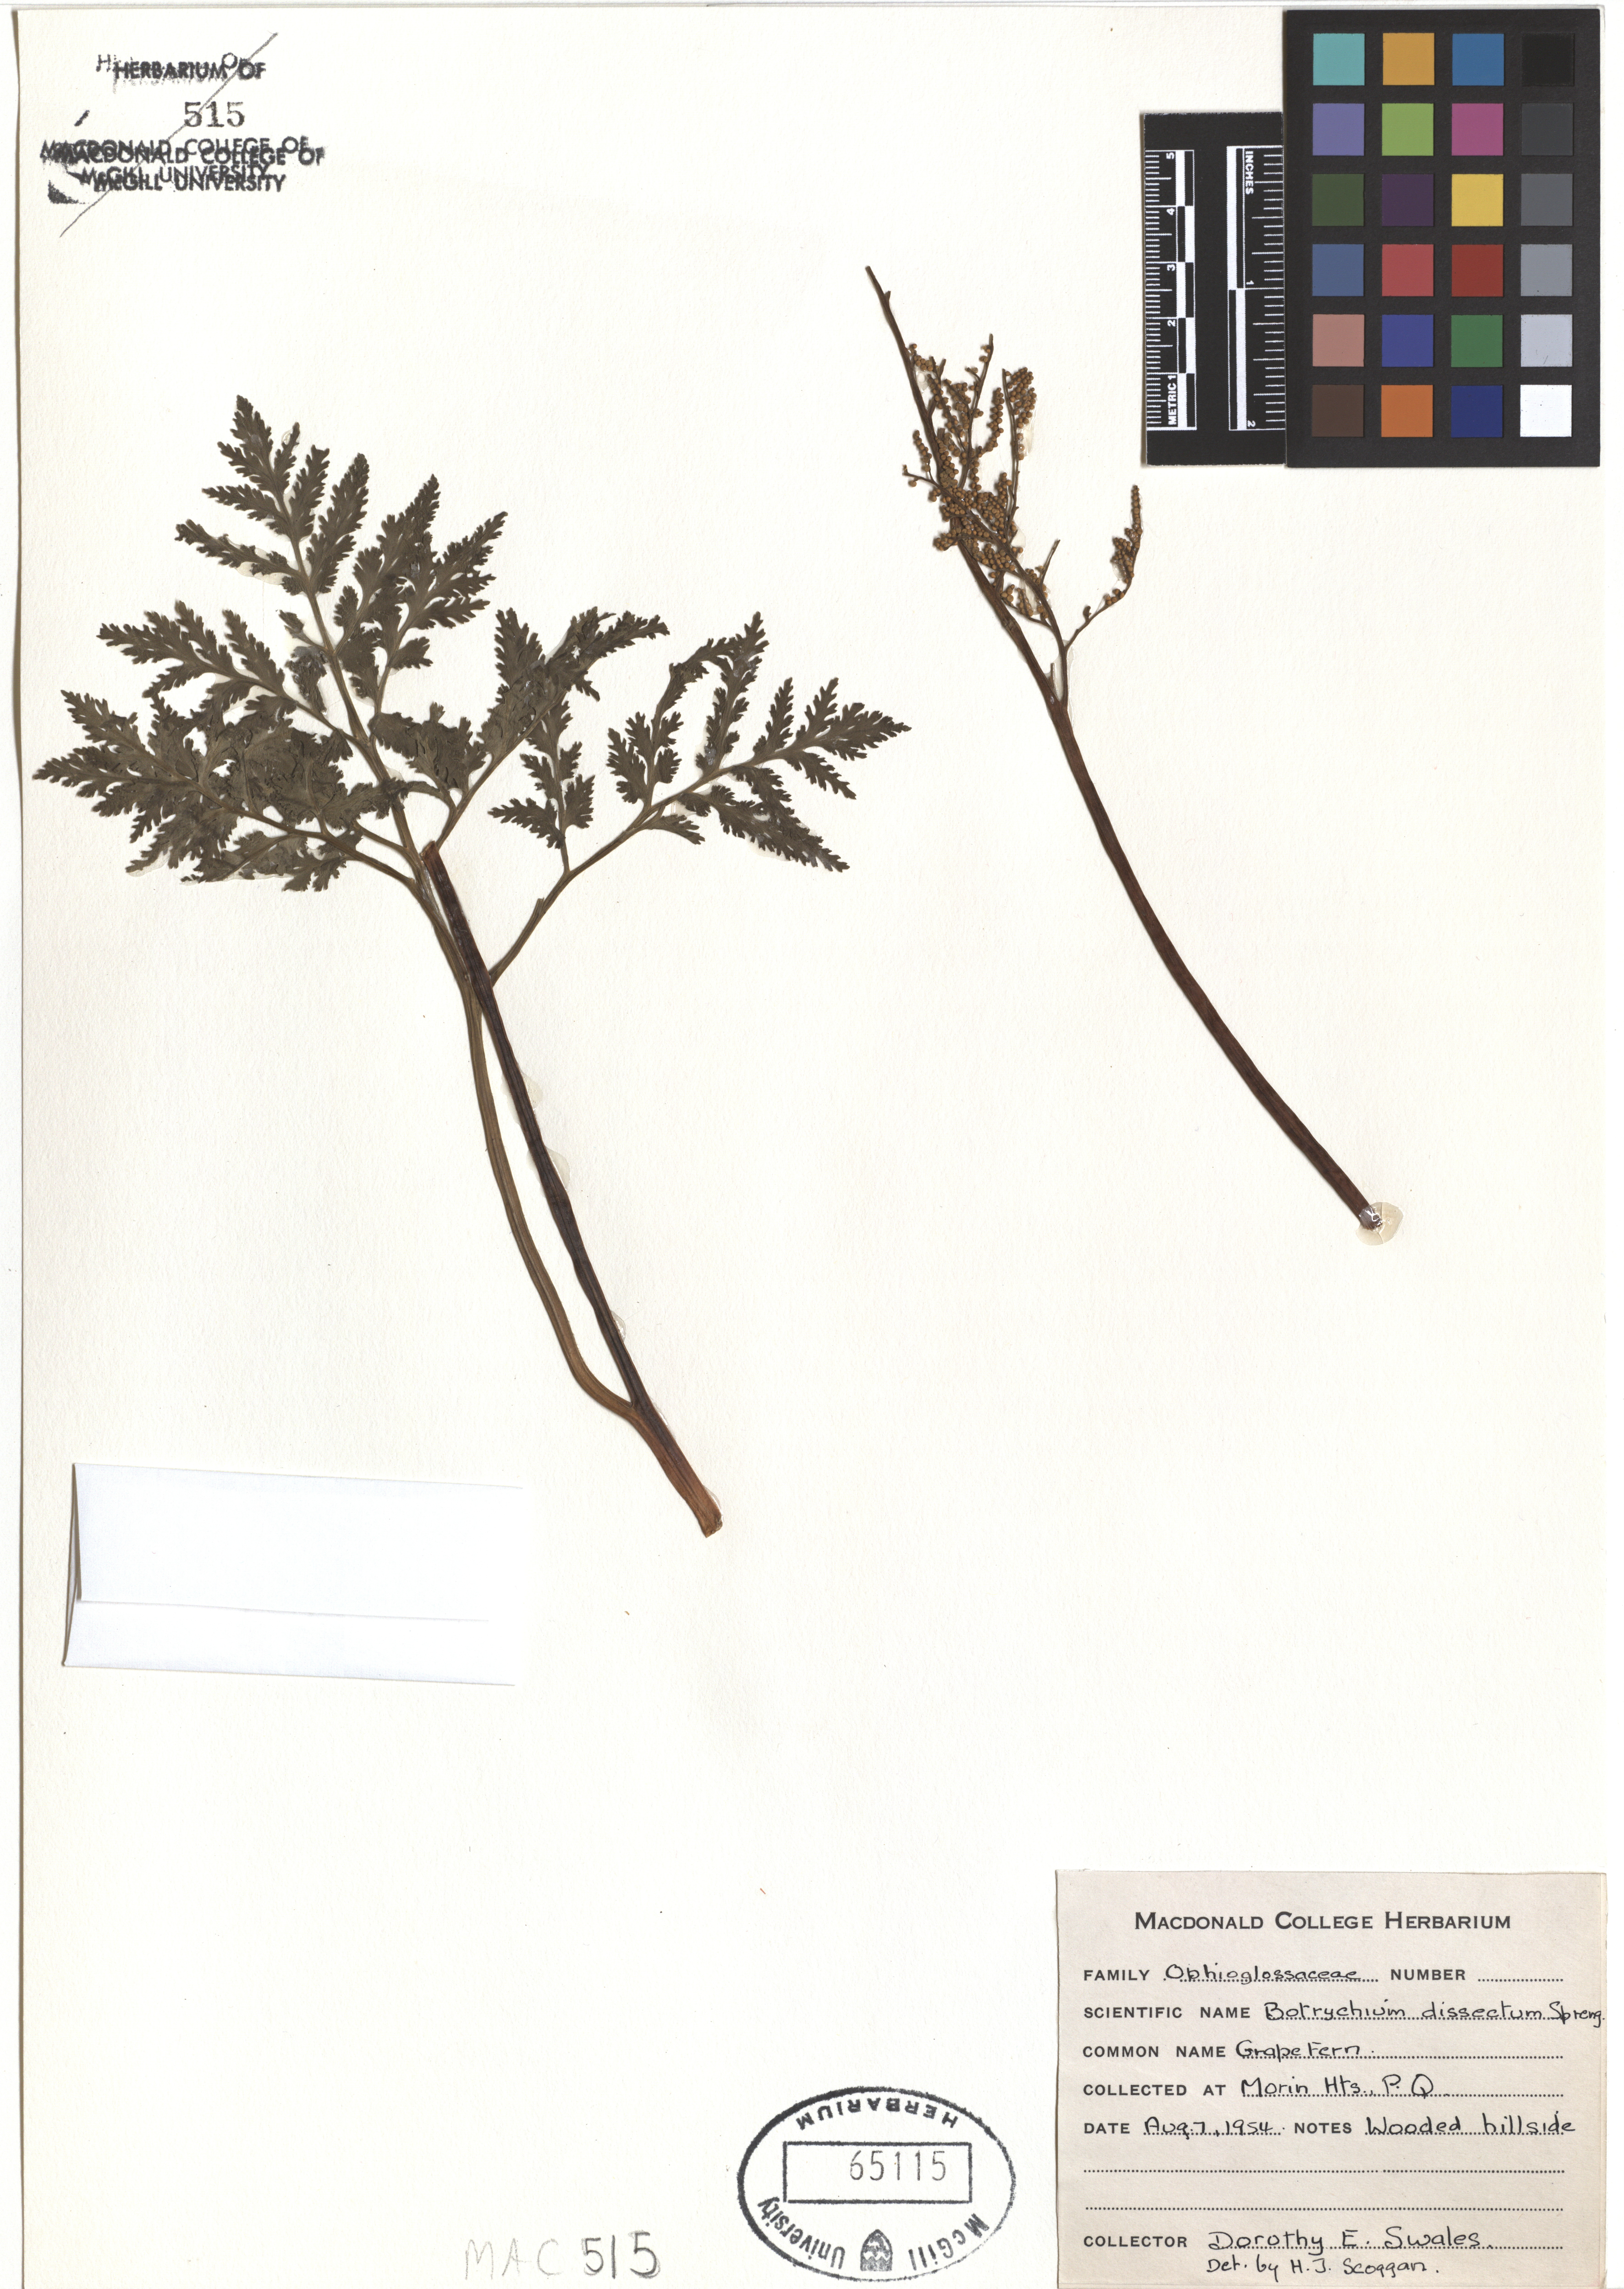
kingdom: Plantae
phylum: Tracheophyta
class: Polypodiopsida
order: Ophioglossales
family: Ophioglossaceae
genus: Sceptridium
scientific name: Sceptridium dissectum
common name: Cut-leaved grapefern
